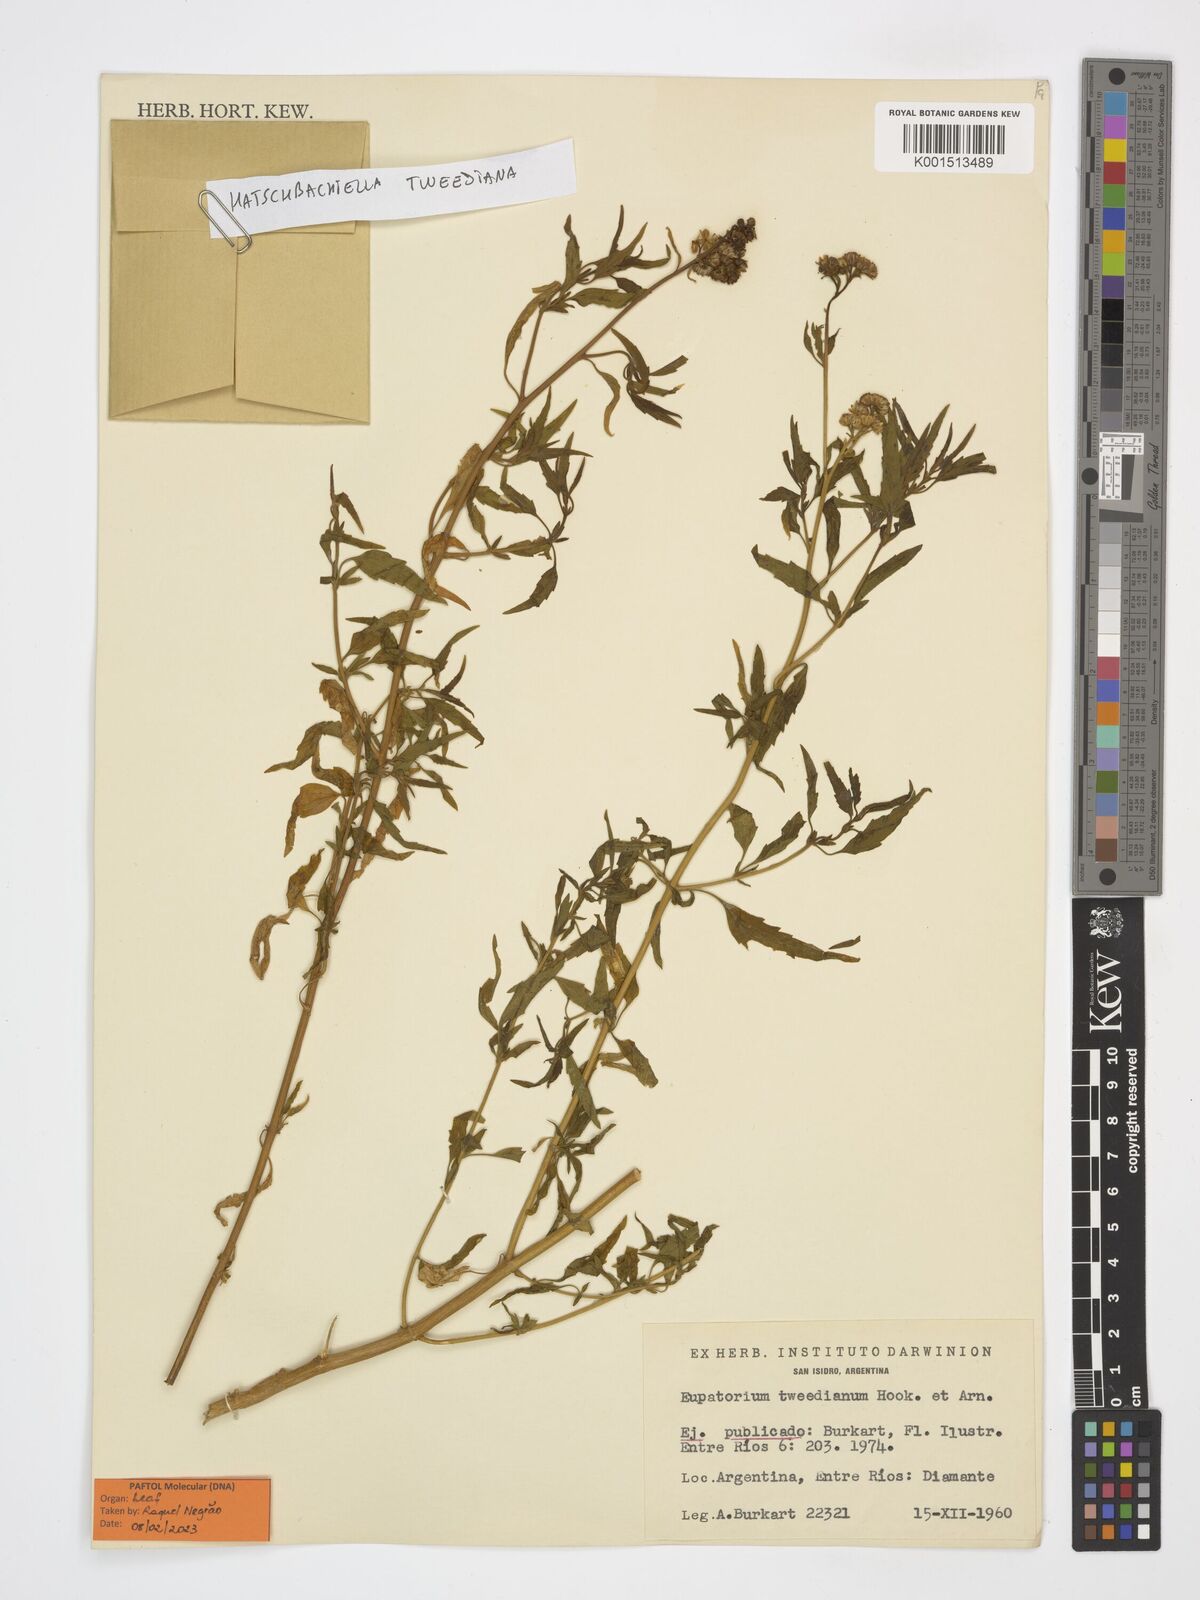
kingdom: Plantae
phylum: Tracheophyta
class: Magnoliopsida
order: Asterales
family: Asteraceae
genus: Hatschbachiella
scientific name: Hatschbachiella tweedieana
